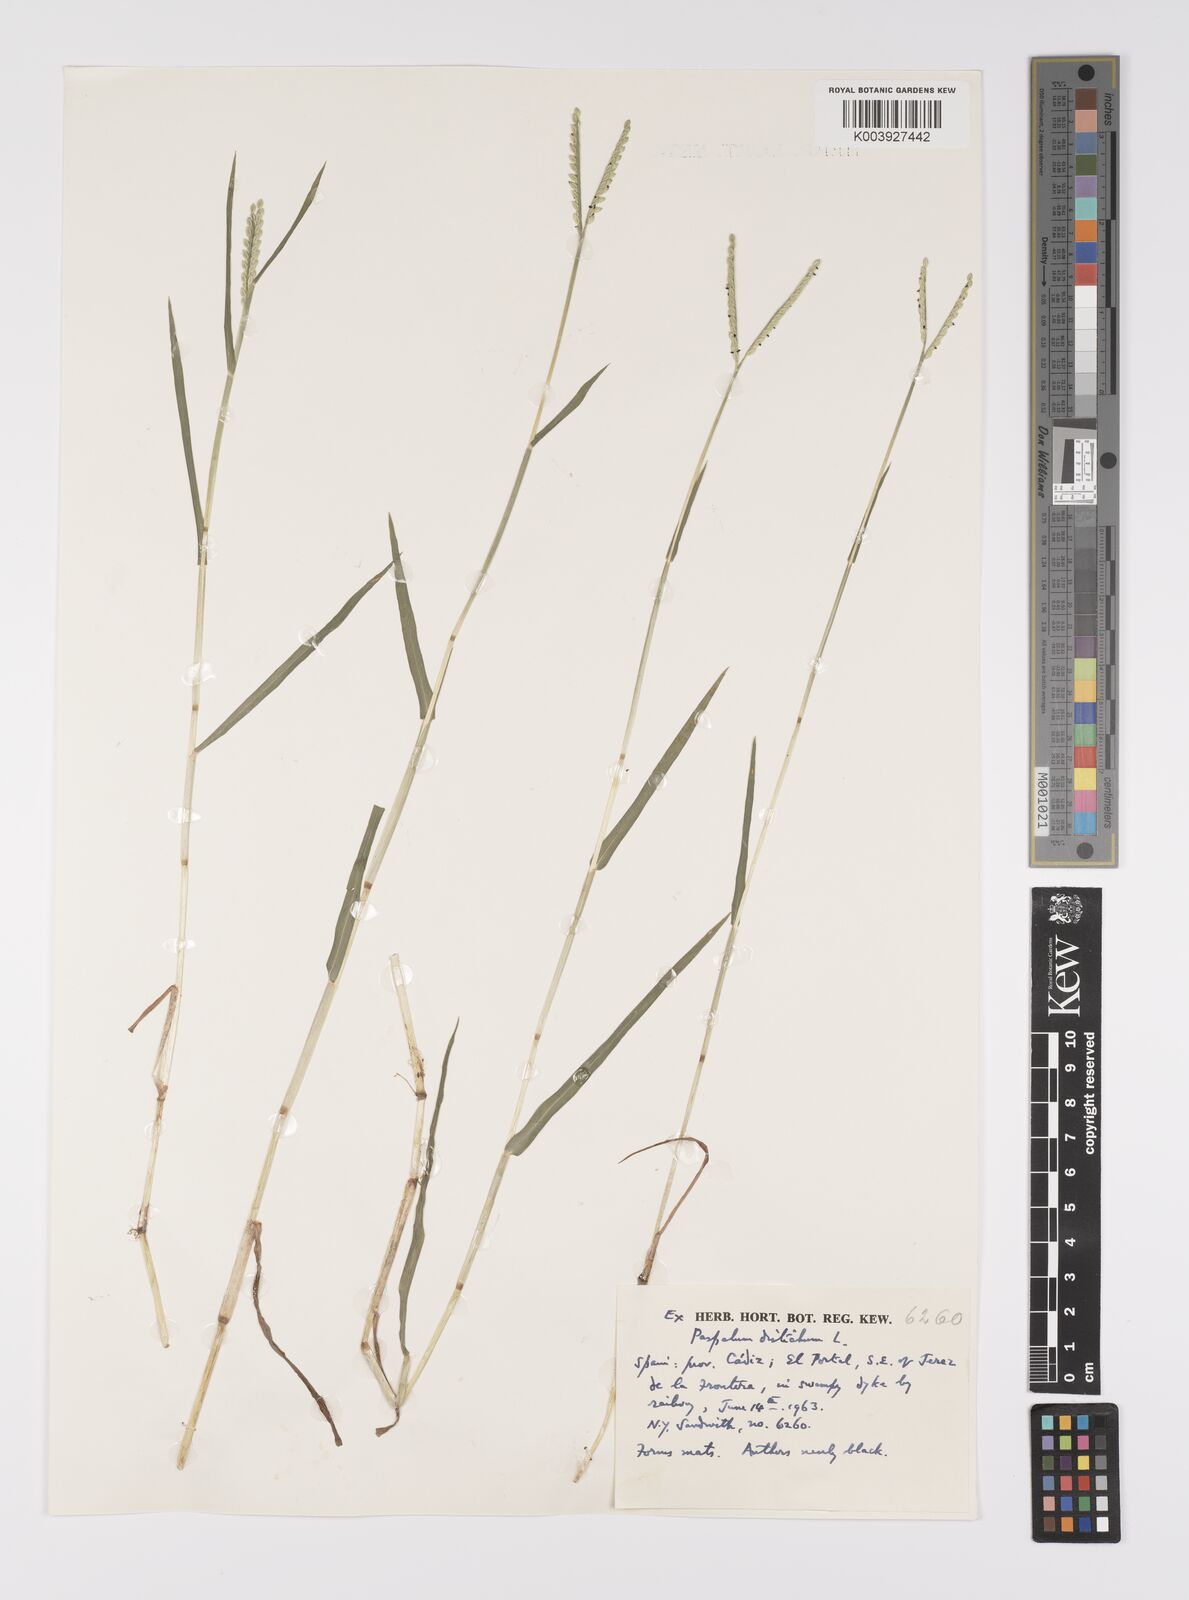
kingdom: Plantae
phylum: Tracheophyta
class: Liliopsida
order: Poales
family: Poaceae
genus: Paspalum
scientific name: Paspalum distichum
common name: Knotgrass
